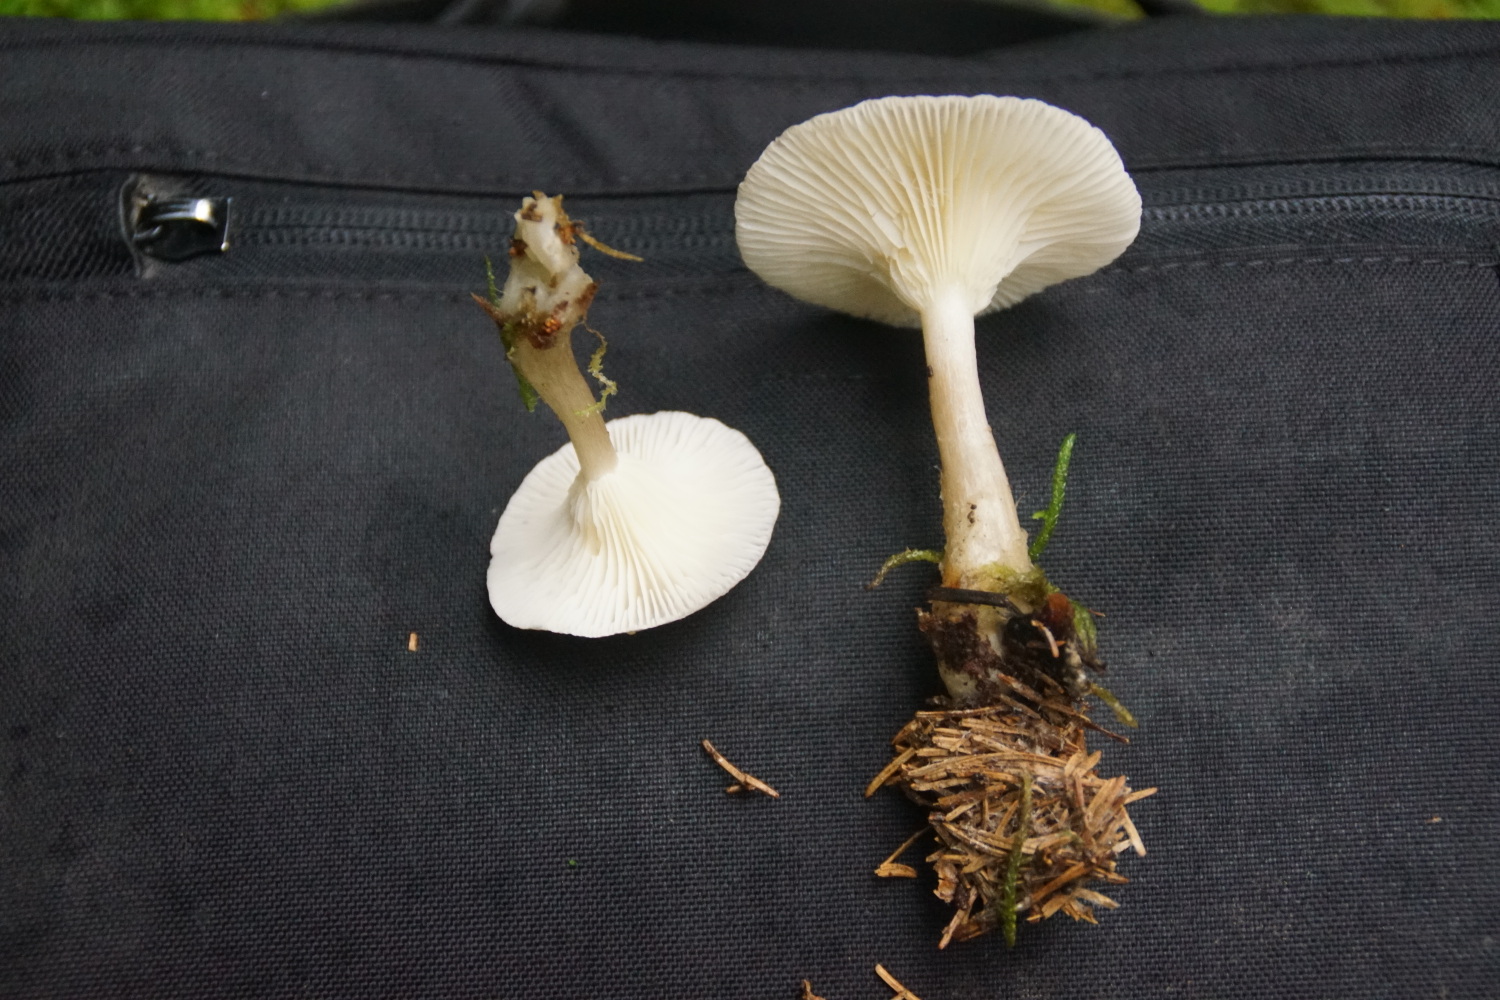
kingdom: Fungi
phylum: Basidiomycota
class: Agaricomycetes
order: Agaricales
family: Hygrophoraceae
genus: Ampulloclitocybe
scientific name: Ampulloclitocybe clavipes
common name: køllefod
